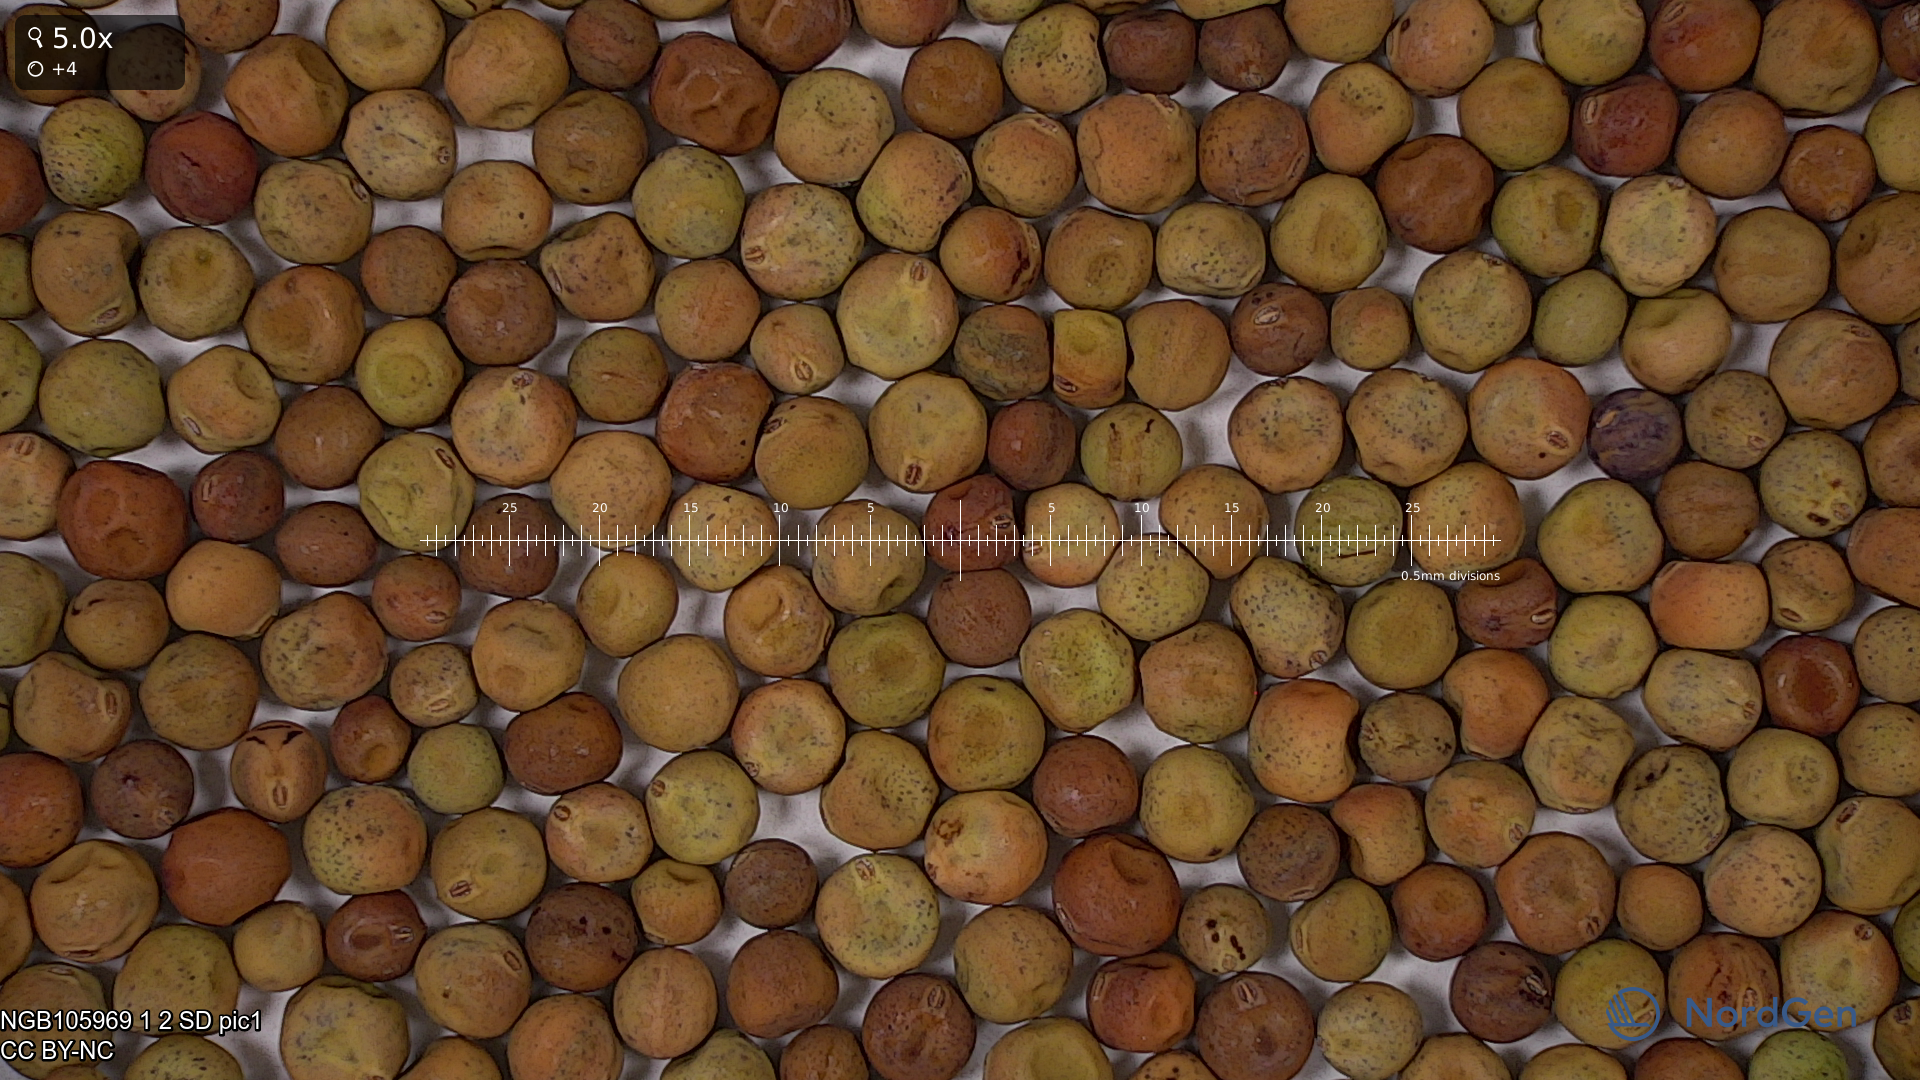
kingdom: Plantae
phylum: Tracheophyta
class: Magnoliopsida
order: Fabales
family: Fabaceae
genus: Lathyrus
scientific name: Lathyrus oleraceus
